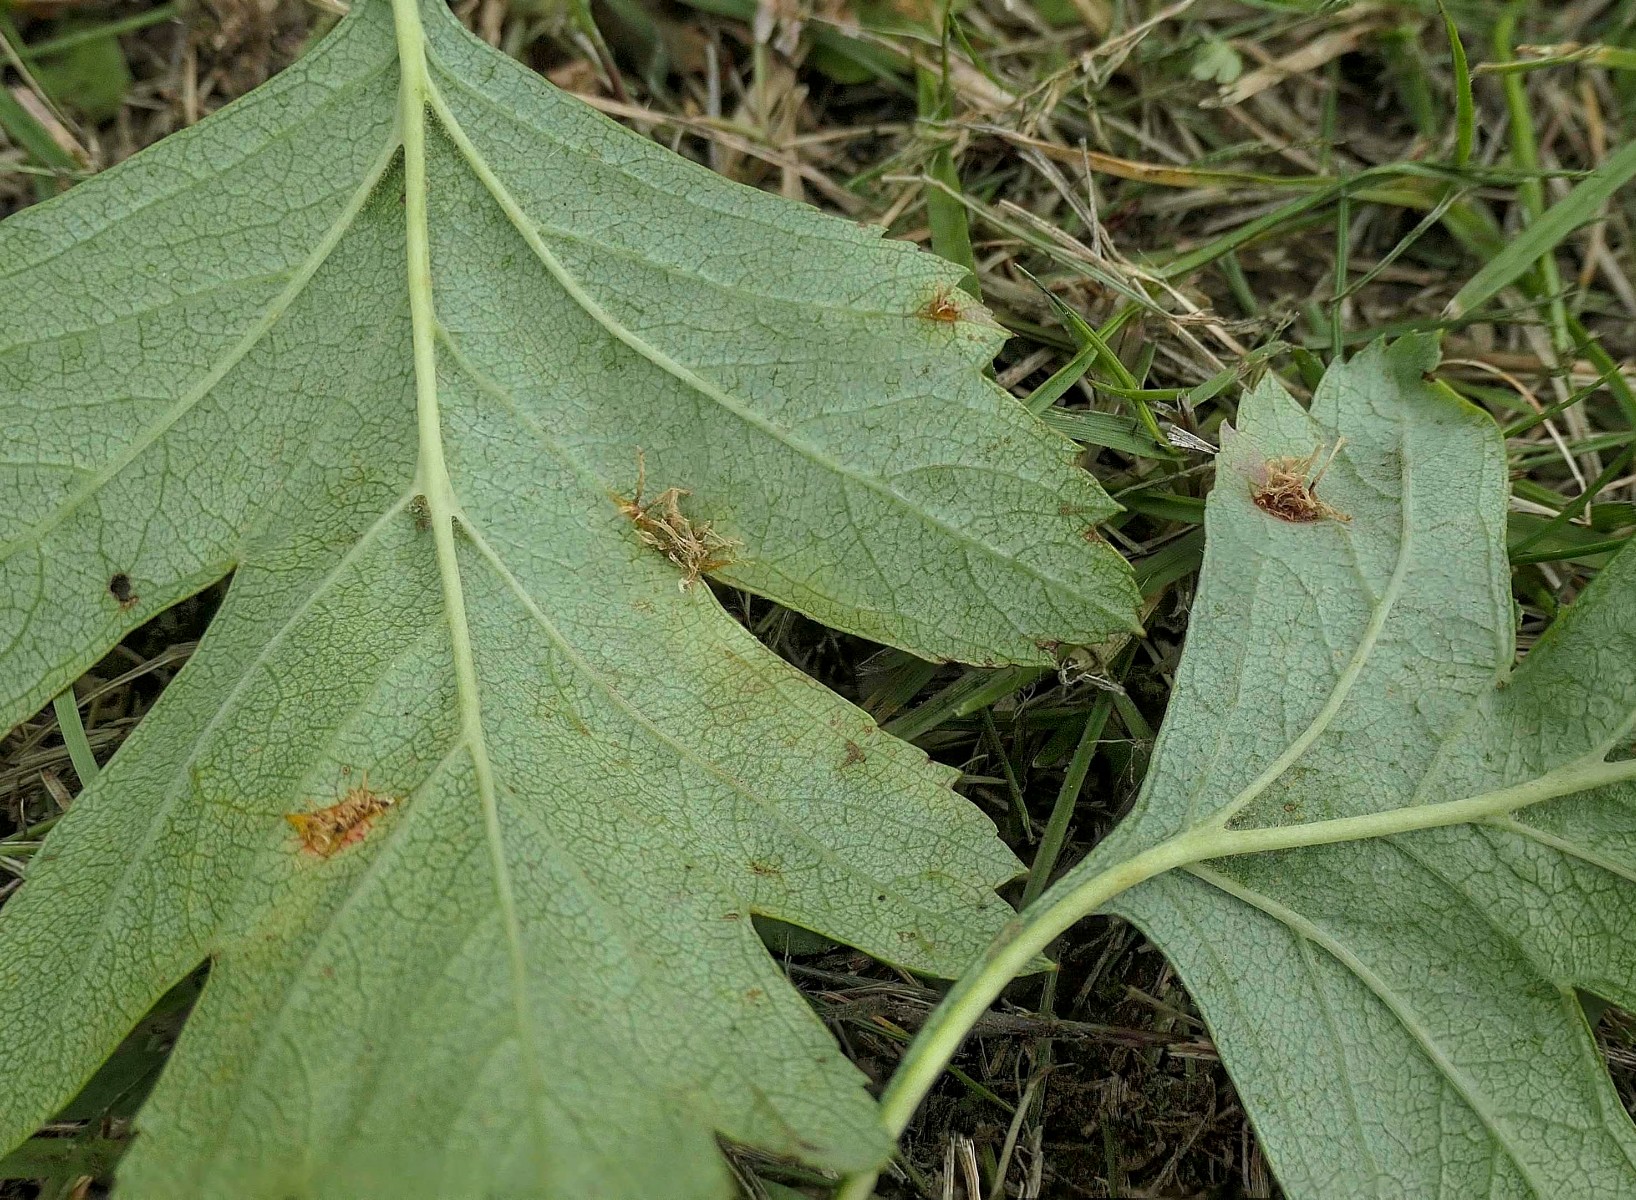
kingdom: Fungi
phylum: Basidiomycota
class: Pucciniomycetes
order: Pucciniales
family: Gymnosporangiaceae
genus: Gymnosporangium
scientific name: Gymnosporangium clavariiforme
